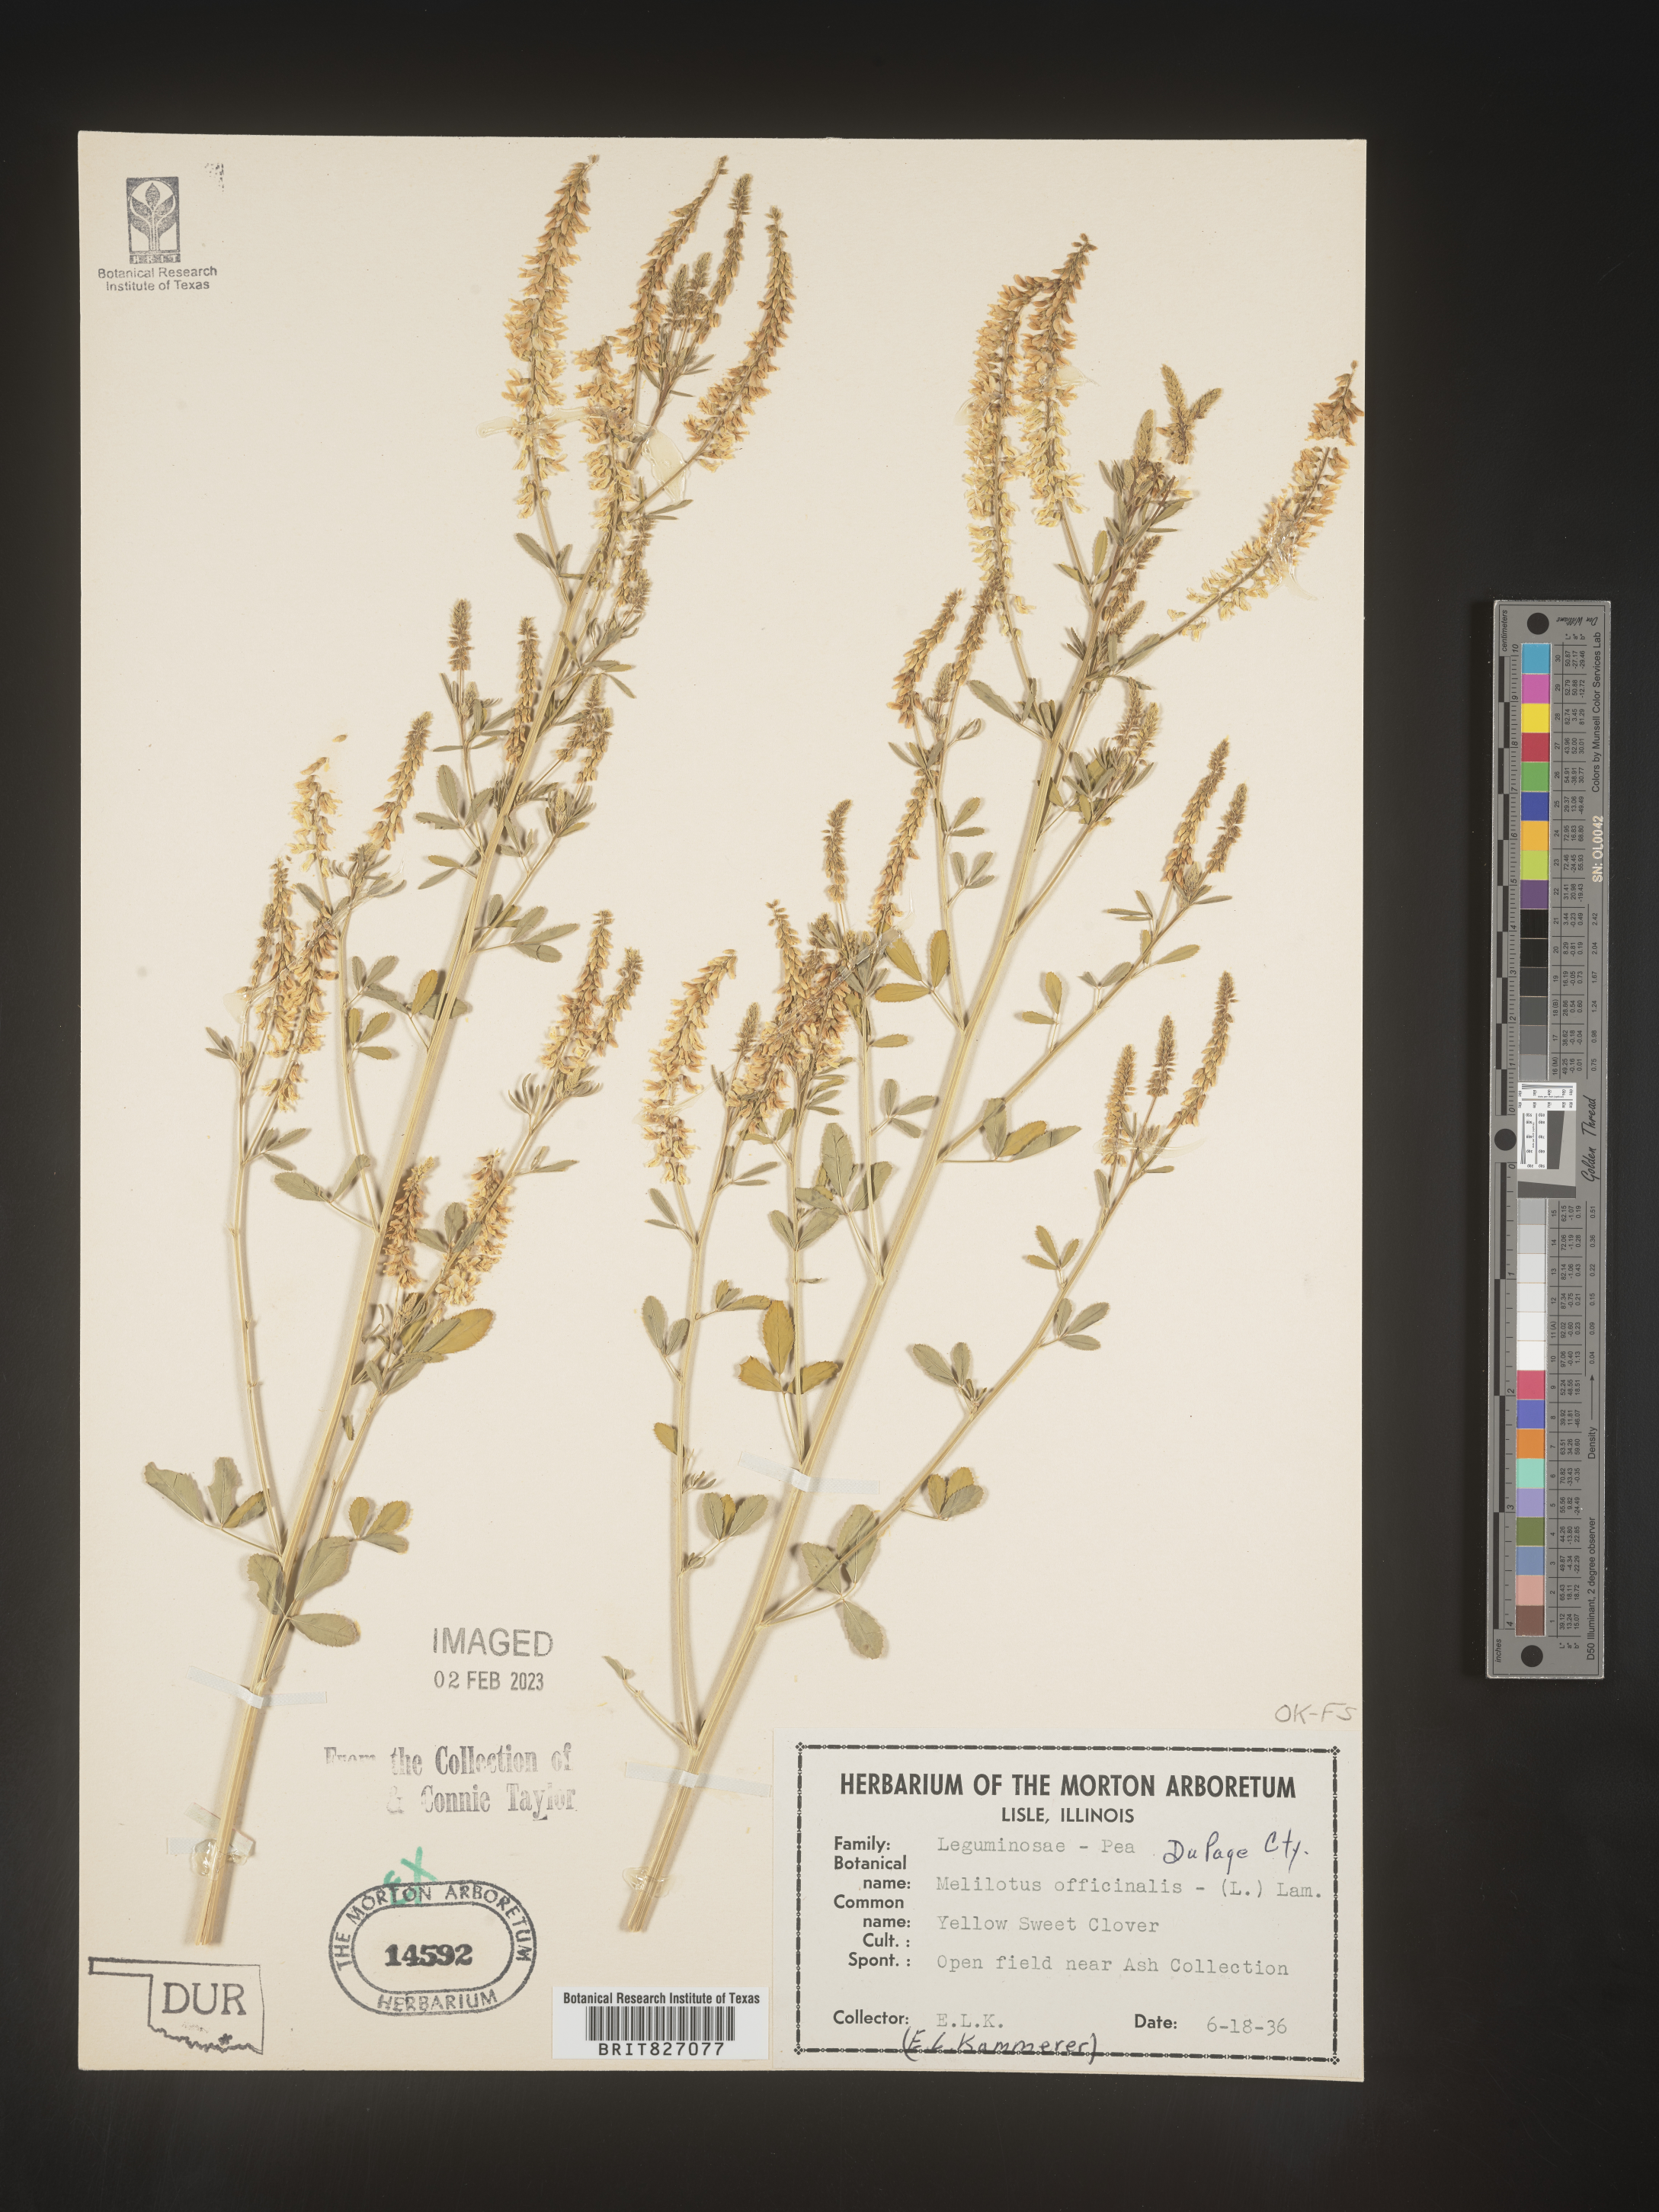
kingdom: Plantae
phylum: Tracheophyta
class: Magnoliopsida
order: Fabales
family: Fabaceae
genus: Melilotus
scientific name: Melilotus officinalis
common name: Sweetclover
